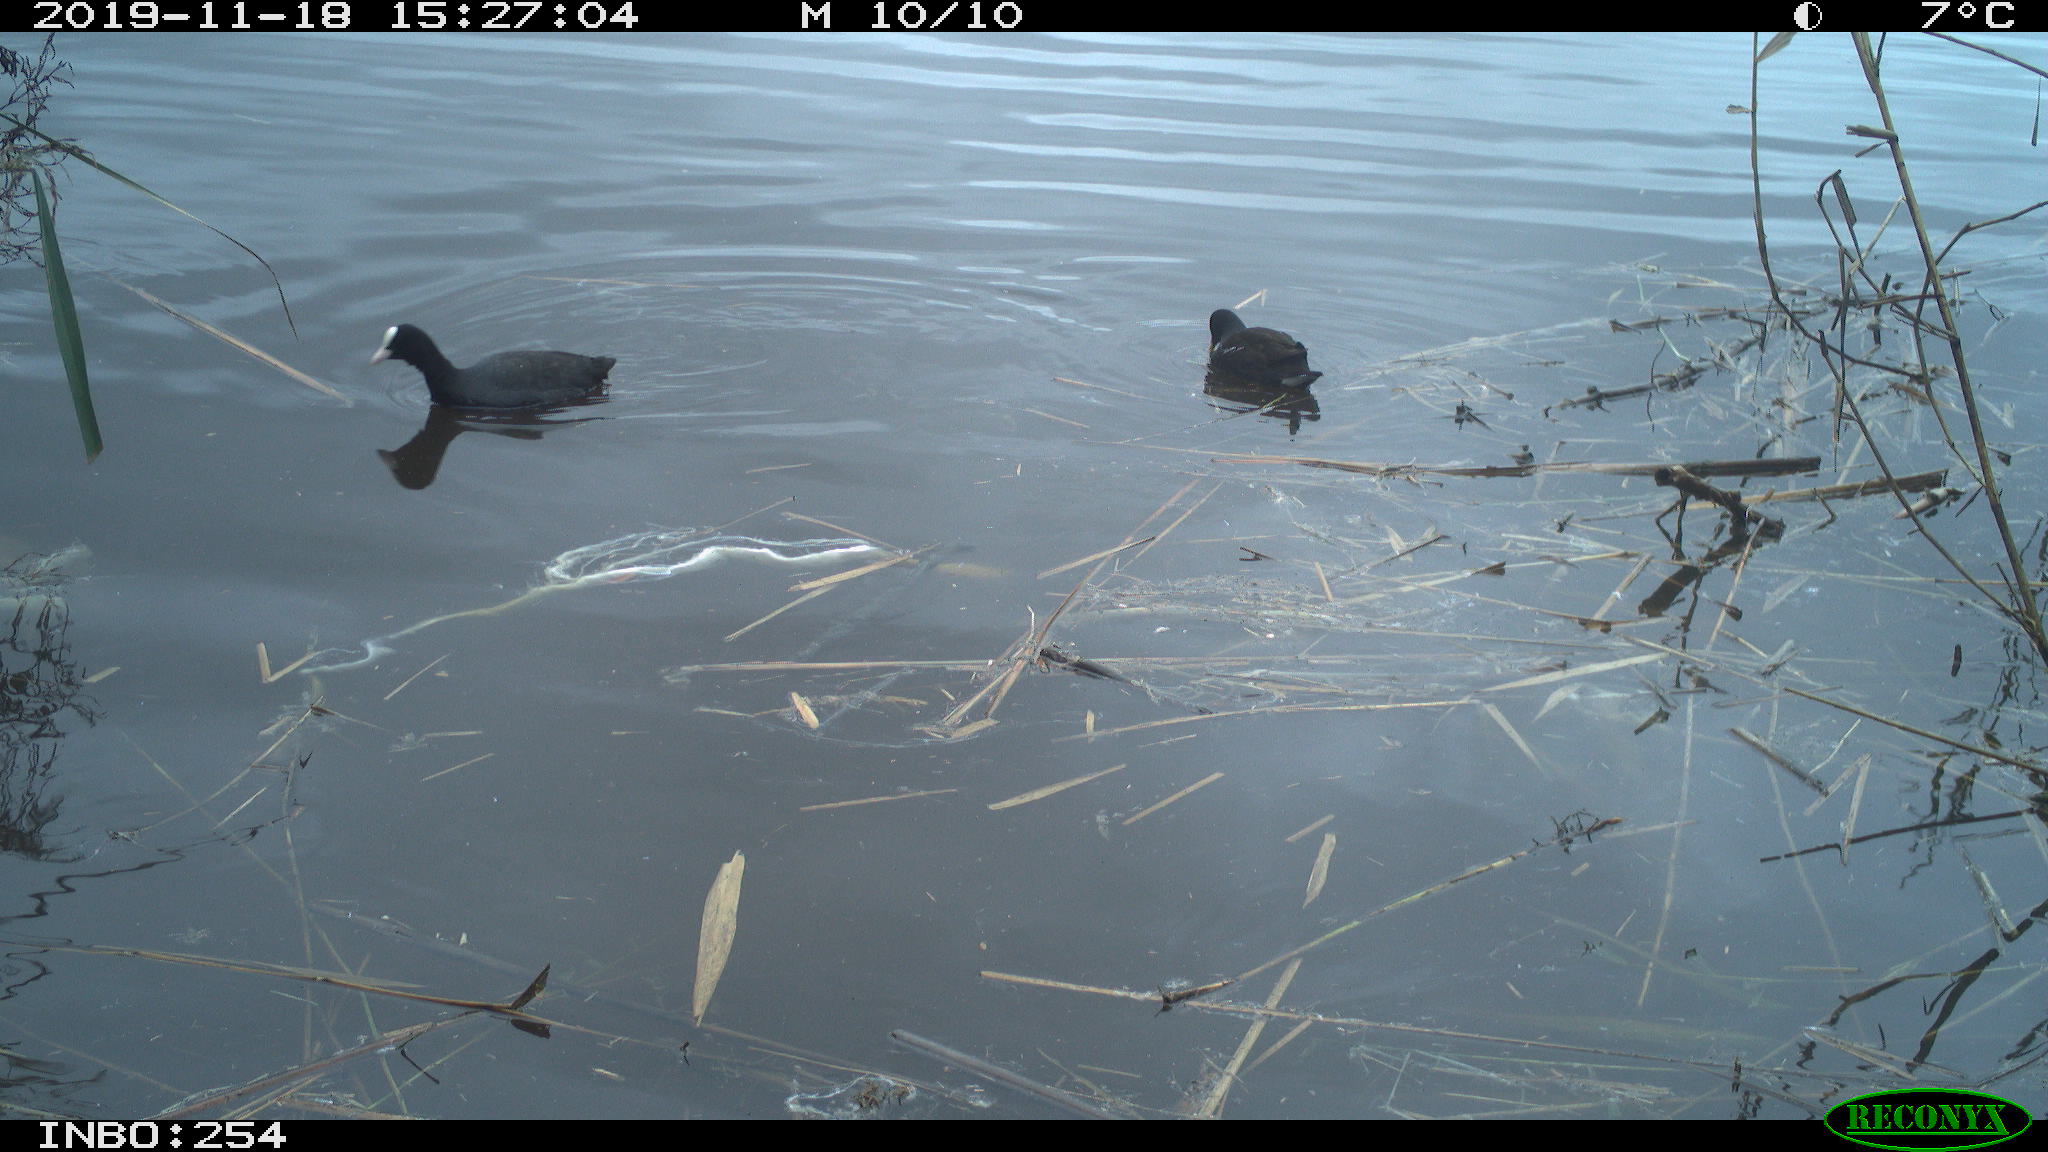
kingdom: Animalia
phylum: Chordata
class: Aves
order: Gruiformes
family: Rallidae
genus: Gallinula
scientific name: Gallinula chloropus
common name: Common moorhen
